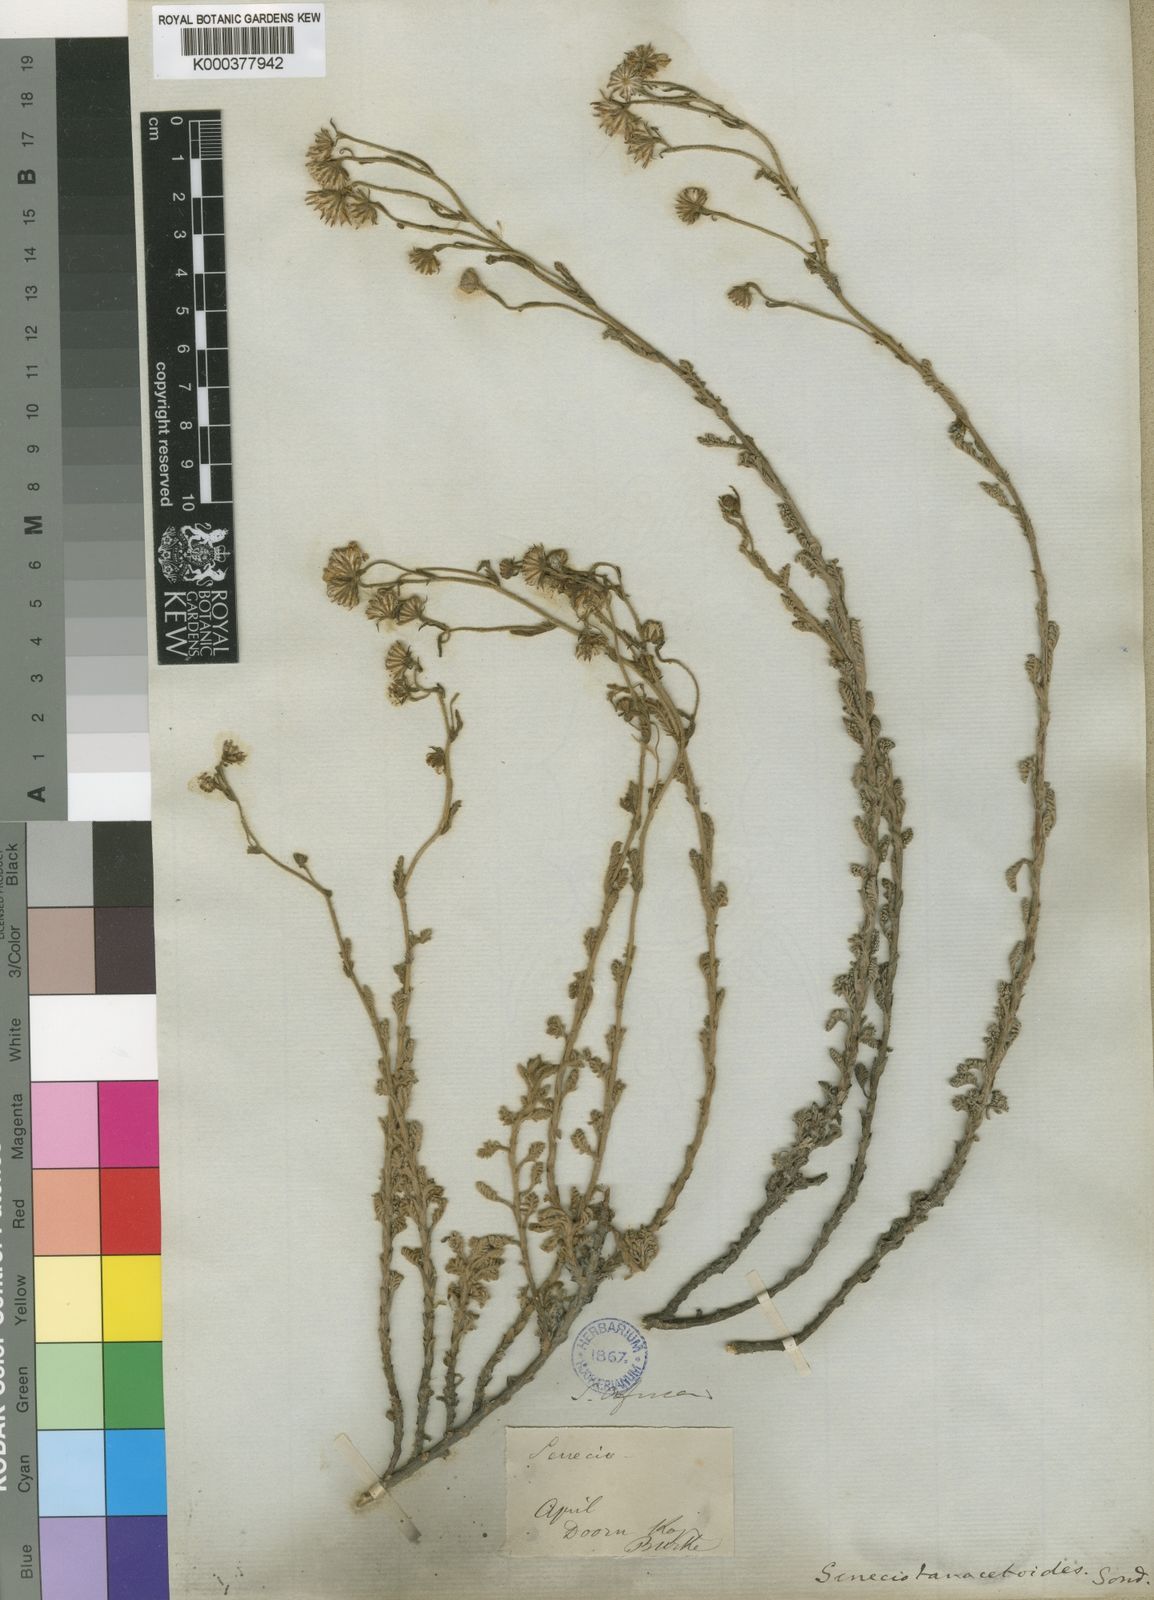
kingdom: Plantae
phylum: Tracheophyta
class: Magnoliopsida
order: Asterales
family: Asteraceae
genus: Senecio
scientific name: Senecio tanacetopsis
